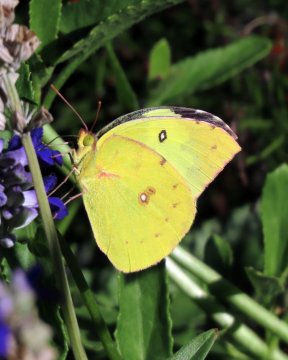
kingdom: Animalia
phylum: Arthropoda
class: Insecta
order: Lepidoptera
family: Pieridae
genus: Zerene
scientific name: Zerene cesonia
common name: Southern Dogface
